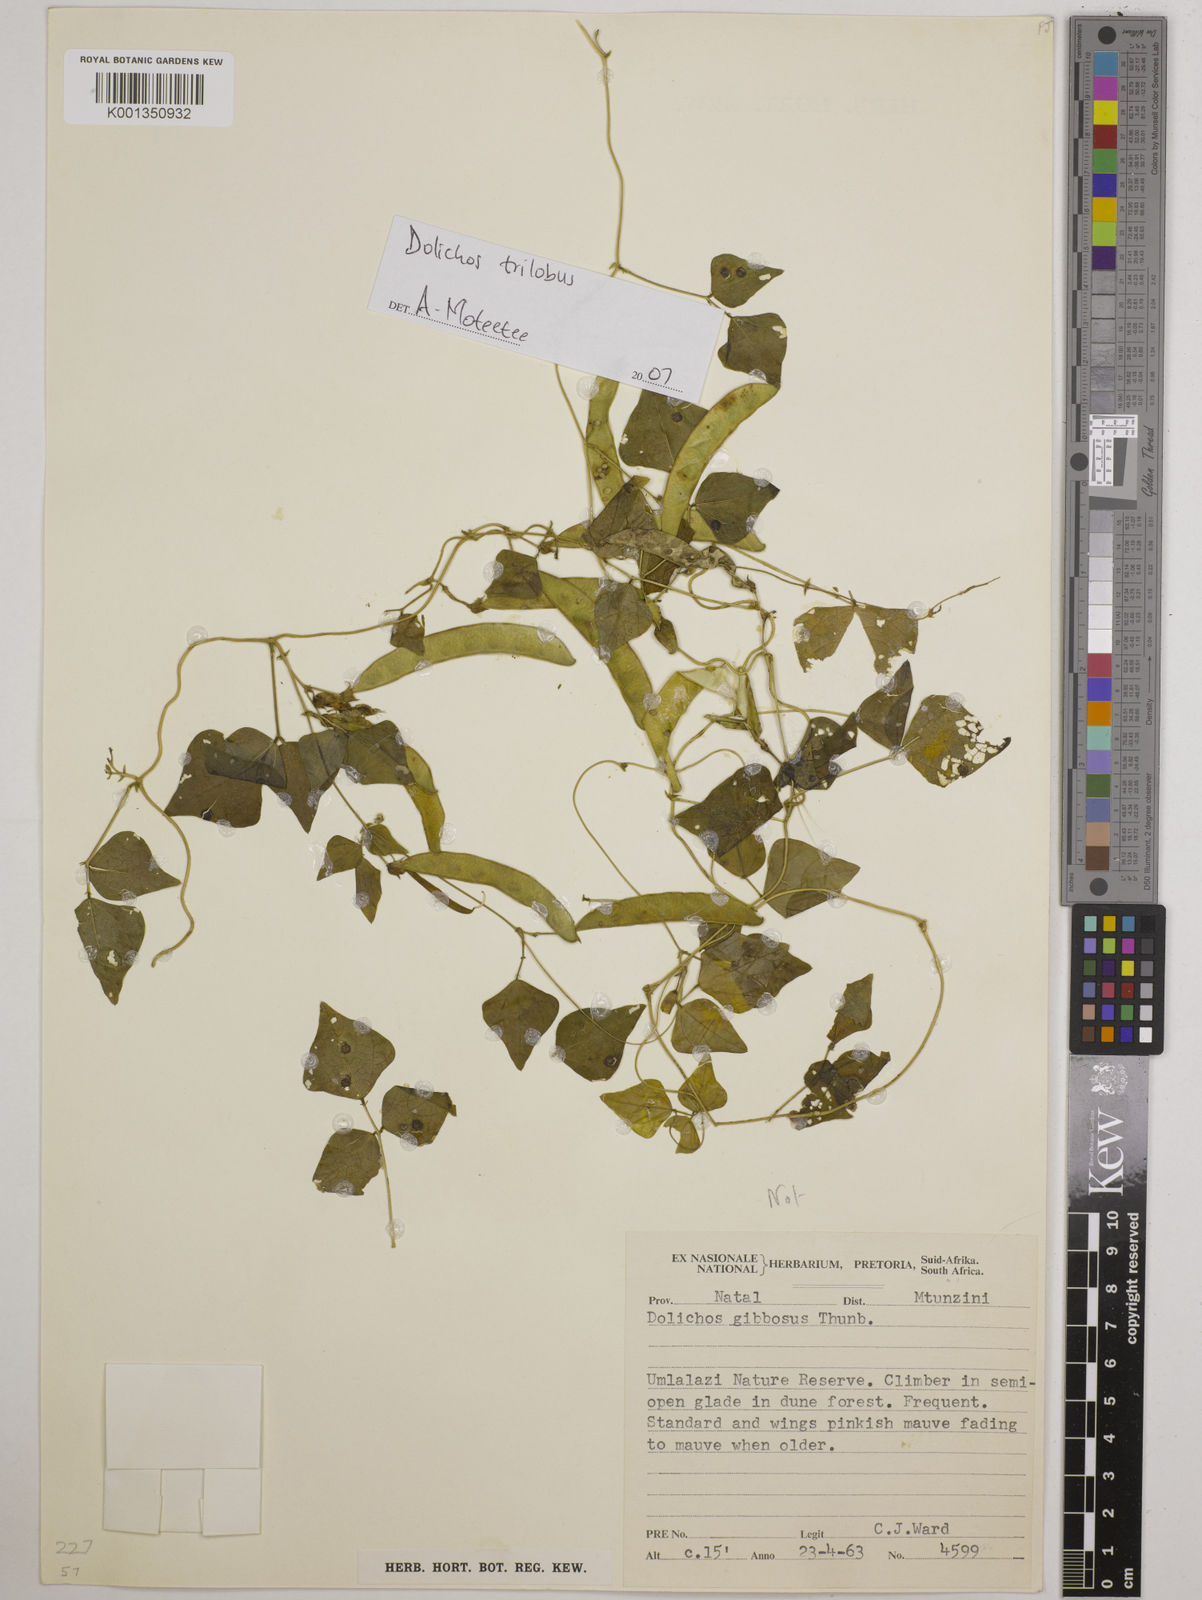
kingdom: Plantae
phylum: Tracheophyta
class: Magnoliopsida
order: Fabales
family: Fabaceae
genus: Dolichos
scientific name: Dolichos
